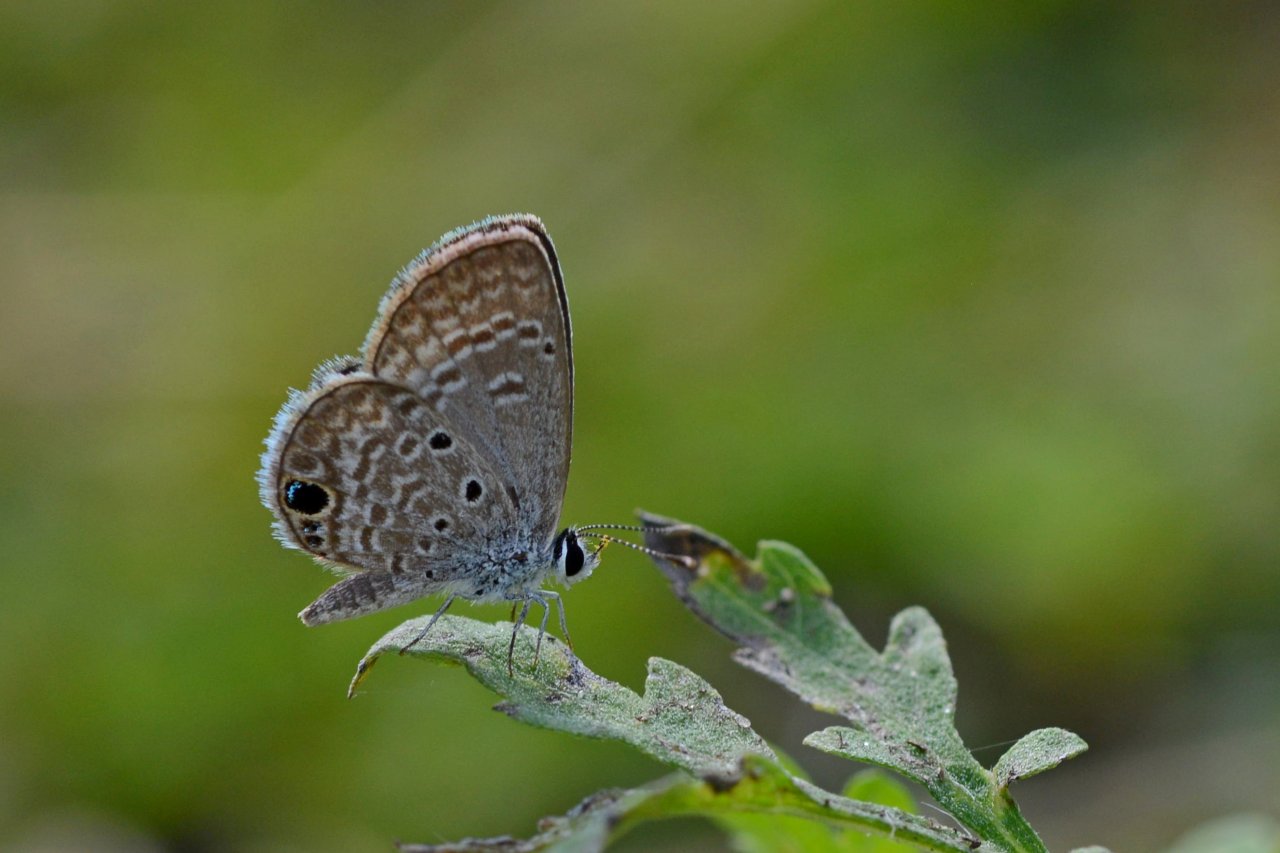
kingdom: Animalia
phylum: Arthropoda
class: Insecta
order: Lepidoptera
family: Lycaenidae
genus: Hemiargus
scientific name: Hemiargus ceraunus
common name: Ceraunus Blue
